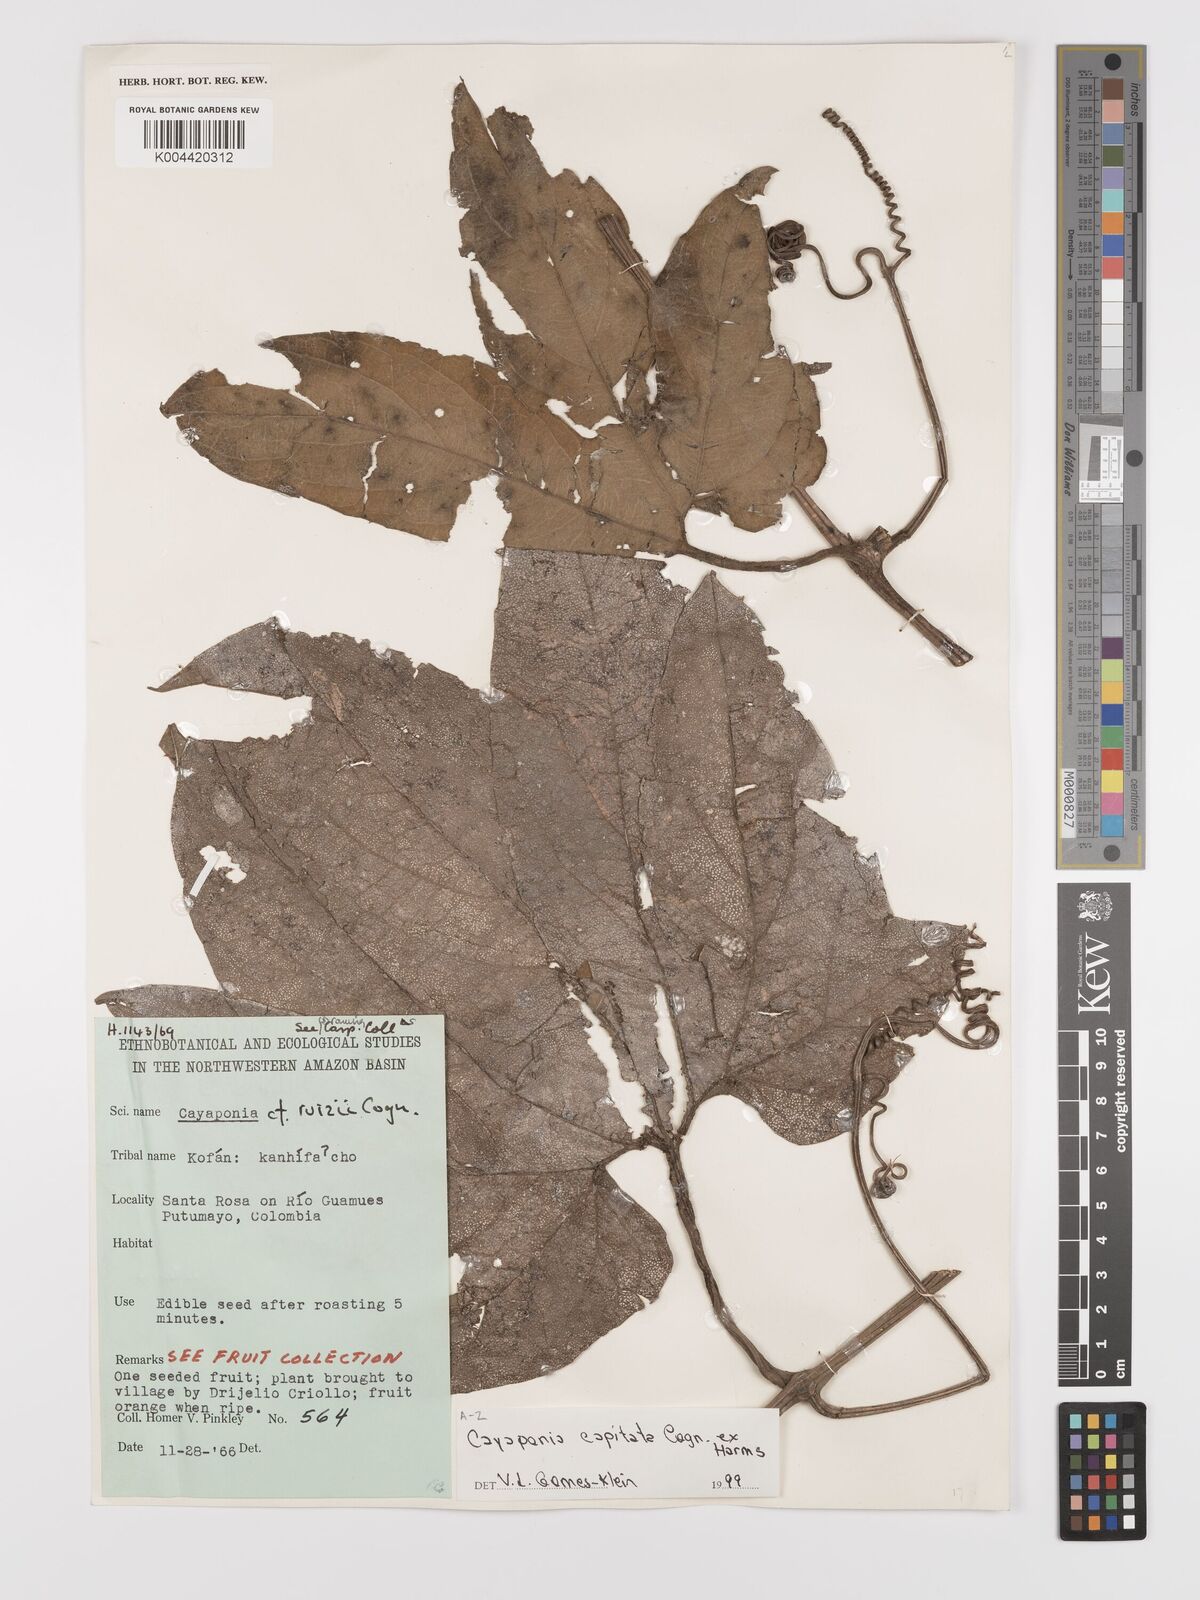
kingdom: Plantae
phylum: Tracheophyta
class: Magnoliopsida
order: Cucurbitales
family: Cucurbitaceae
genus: Cayaponia
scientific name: Cayaponia capitata
